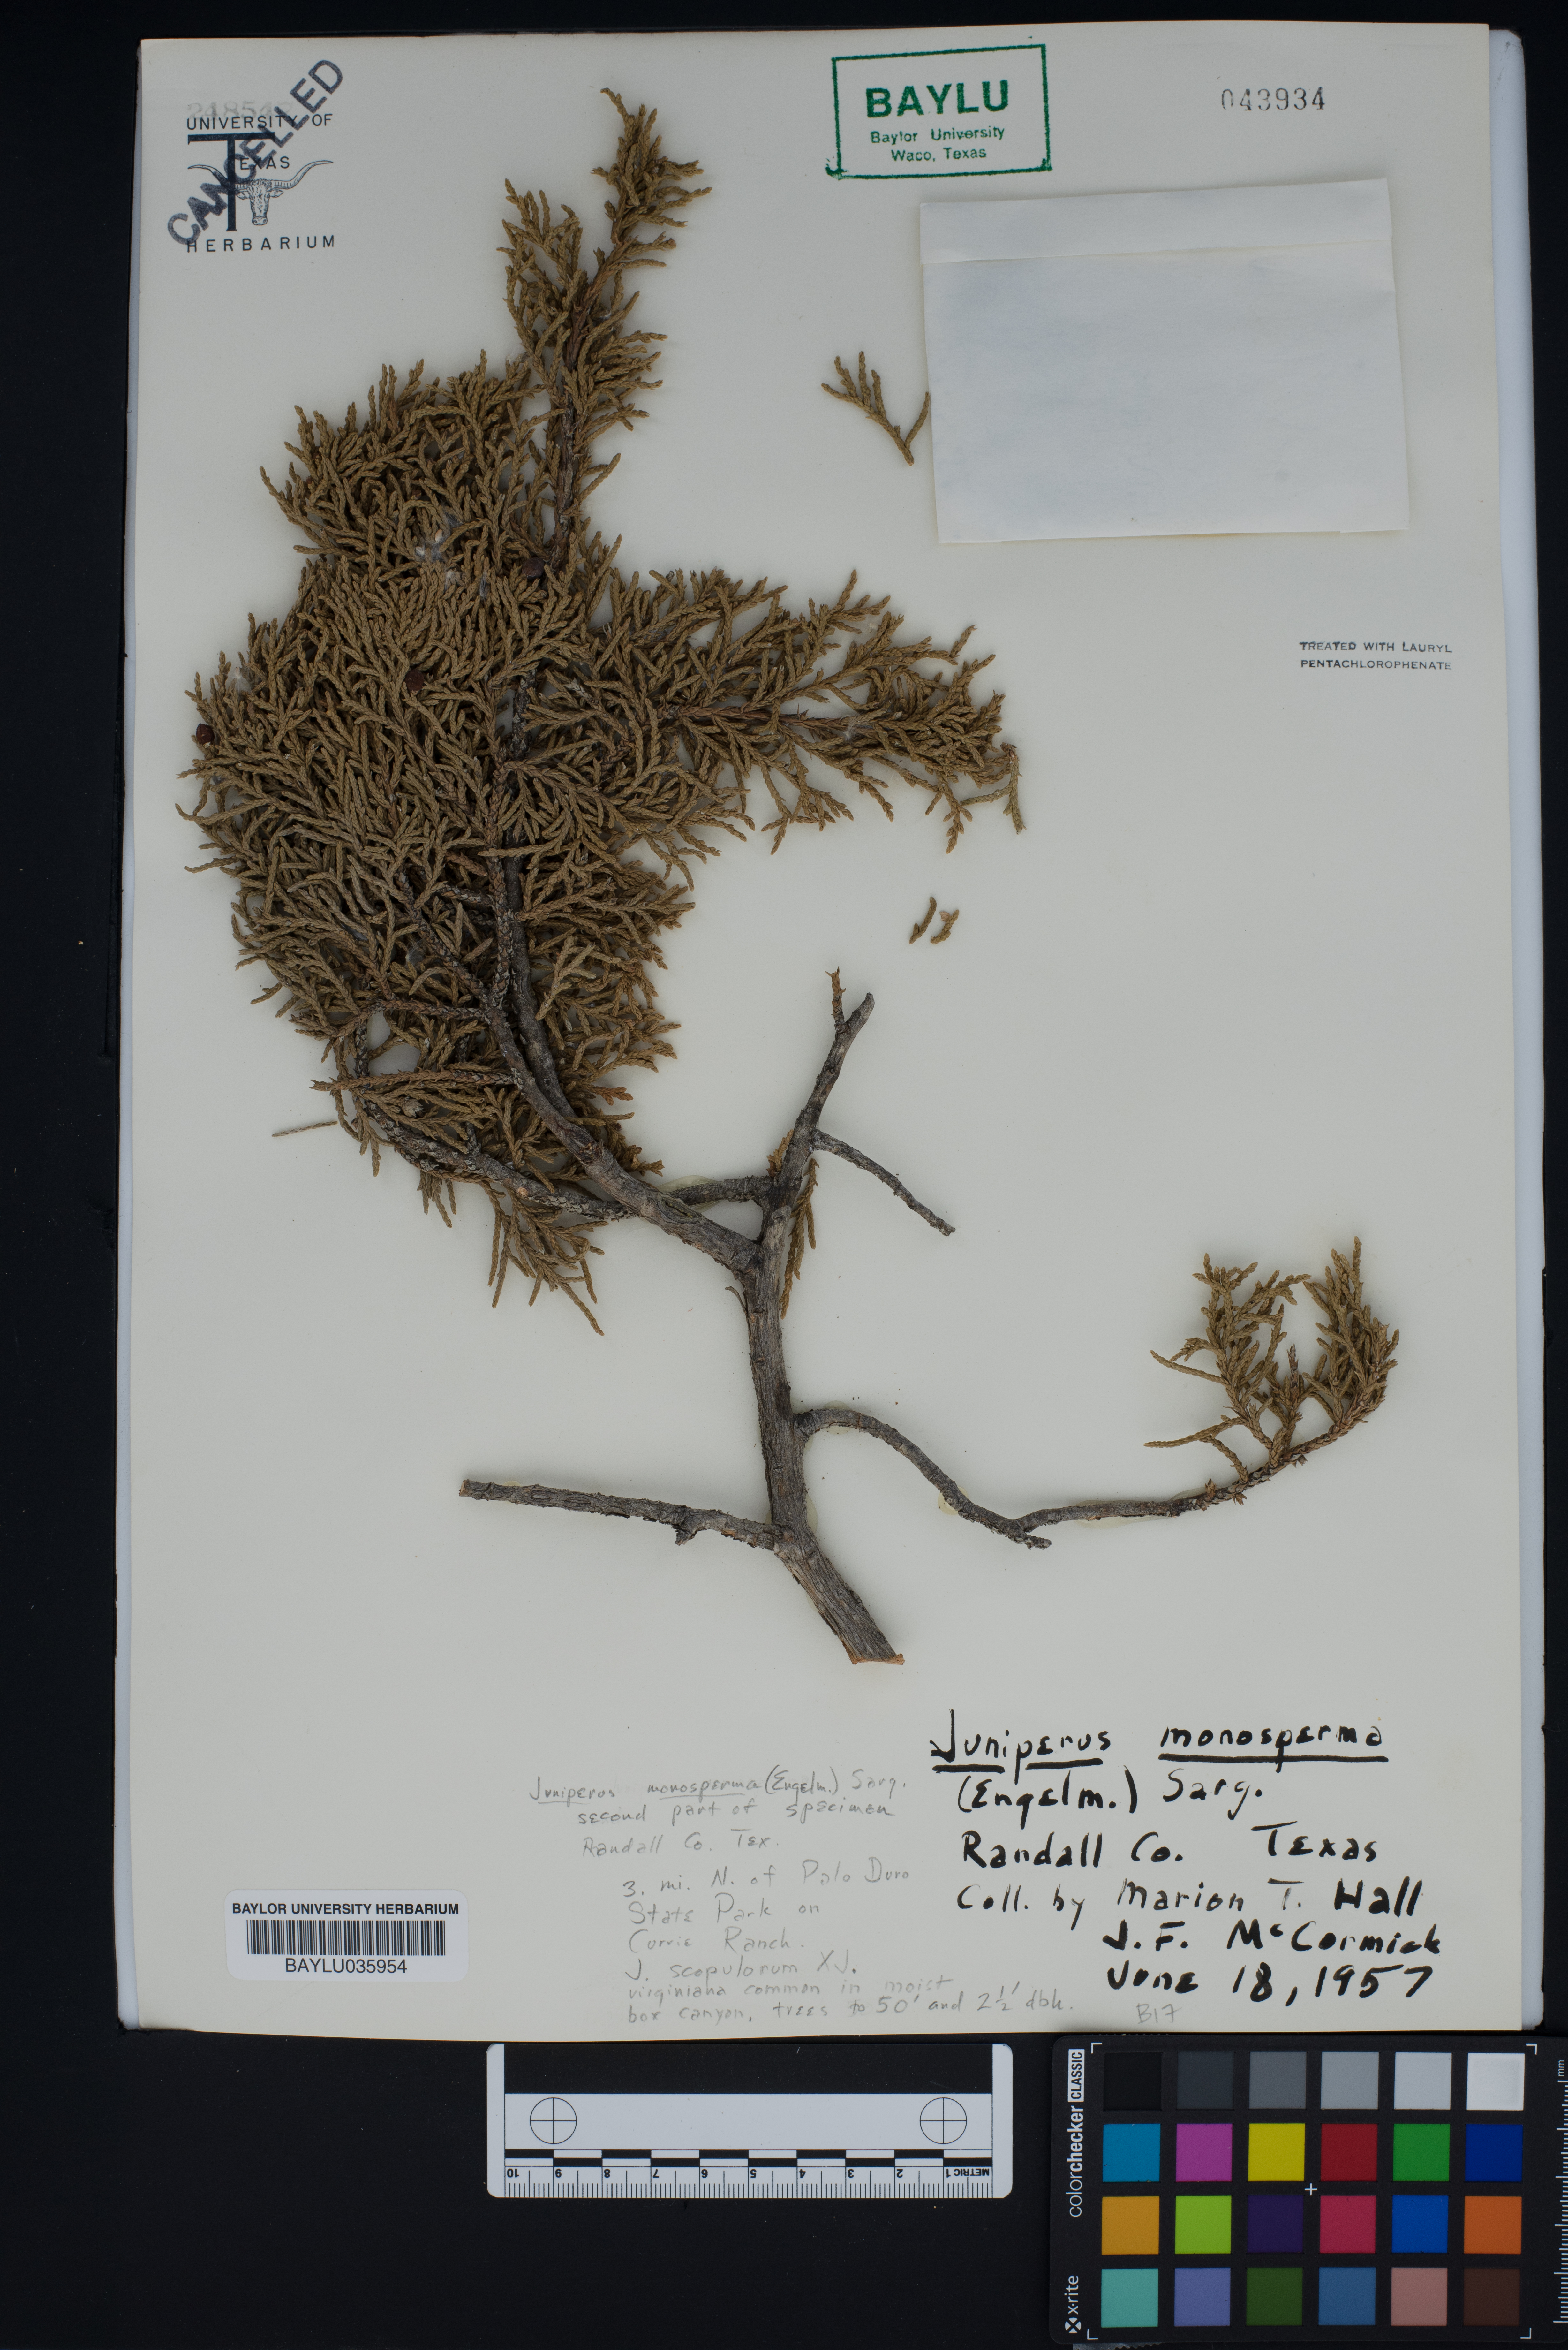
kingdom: Plantae
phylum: Tracheophyta
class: Pinopsida
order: Pinales
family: Cupressaceae
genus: Juniperus
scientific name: Juniperus monosperma
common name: One-seed juniper
